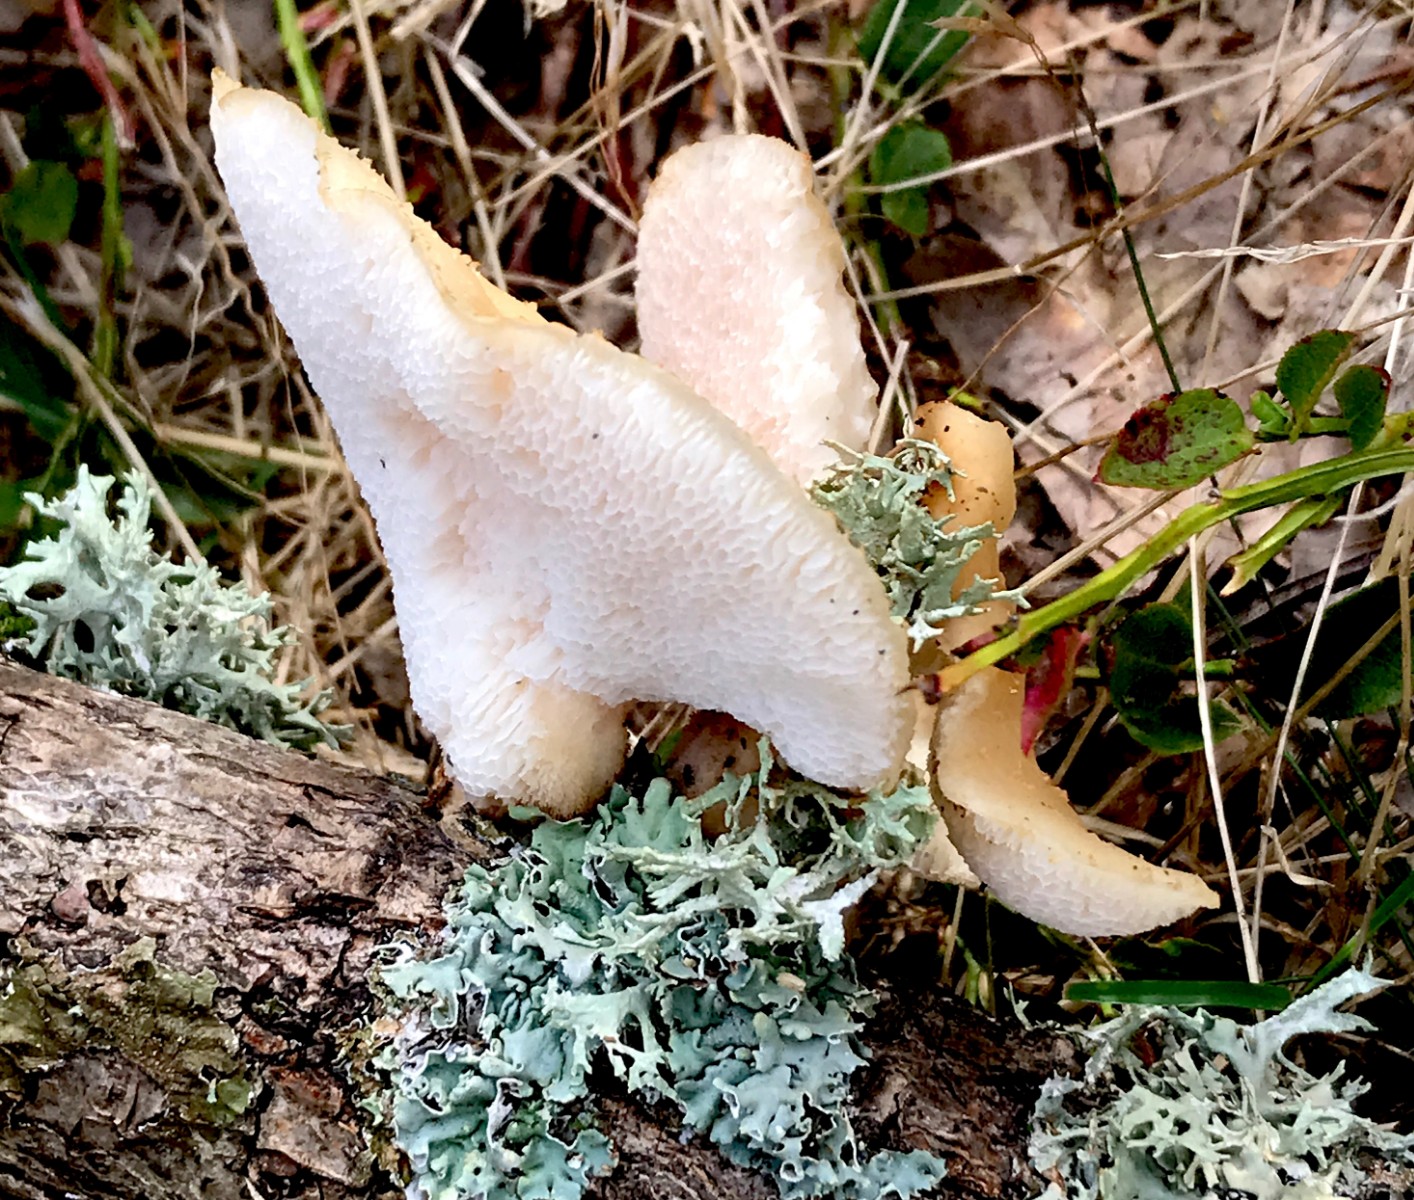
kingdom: Fungi
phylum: Basidiomycota
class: Agaricomycetes
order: Polyporales
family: Polyporaceae
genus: Polyporus
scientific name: Polyporus tuberaster
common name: knoldet stilkporesvamp
